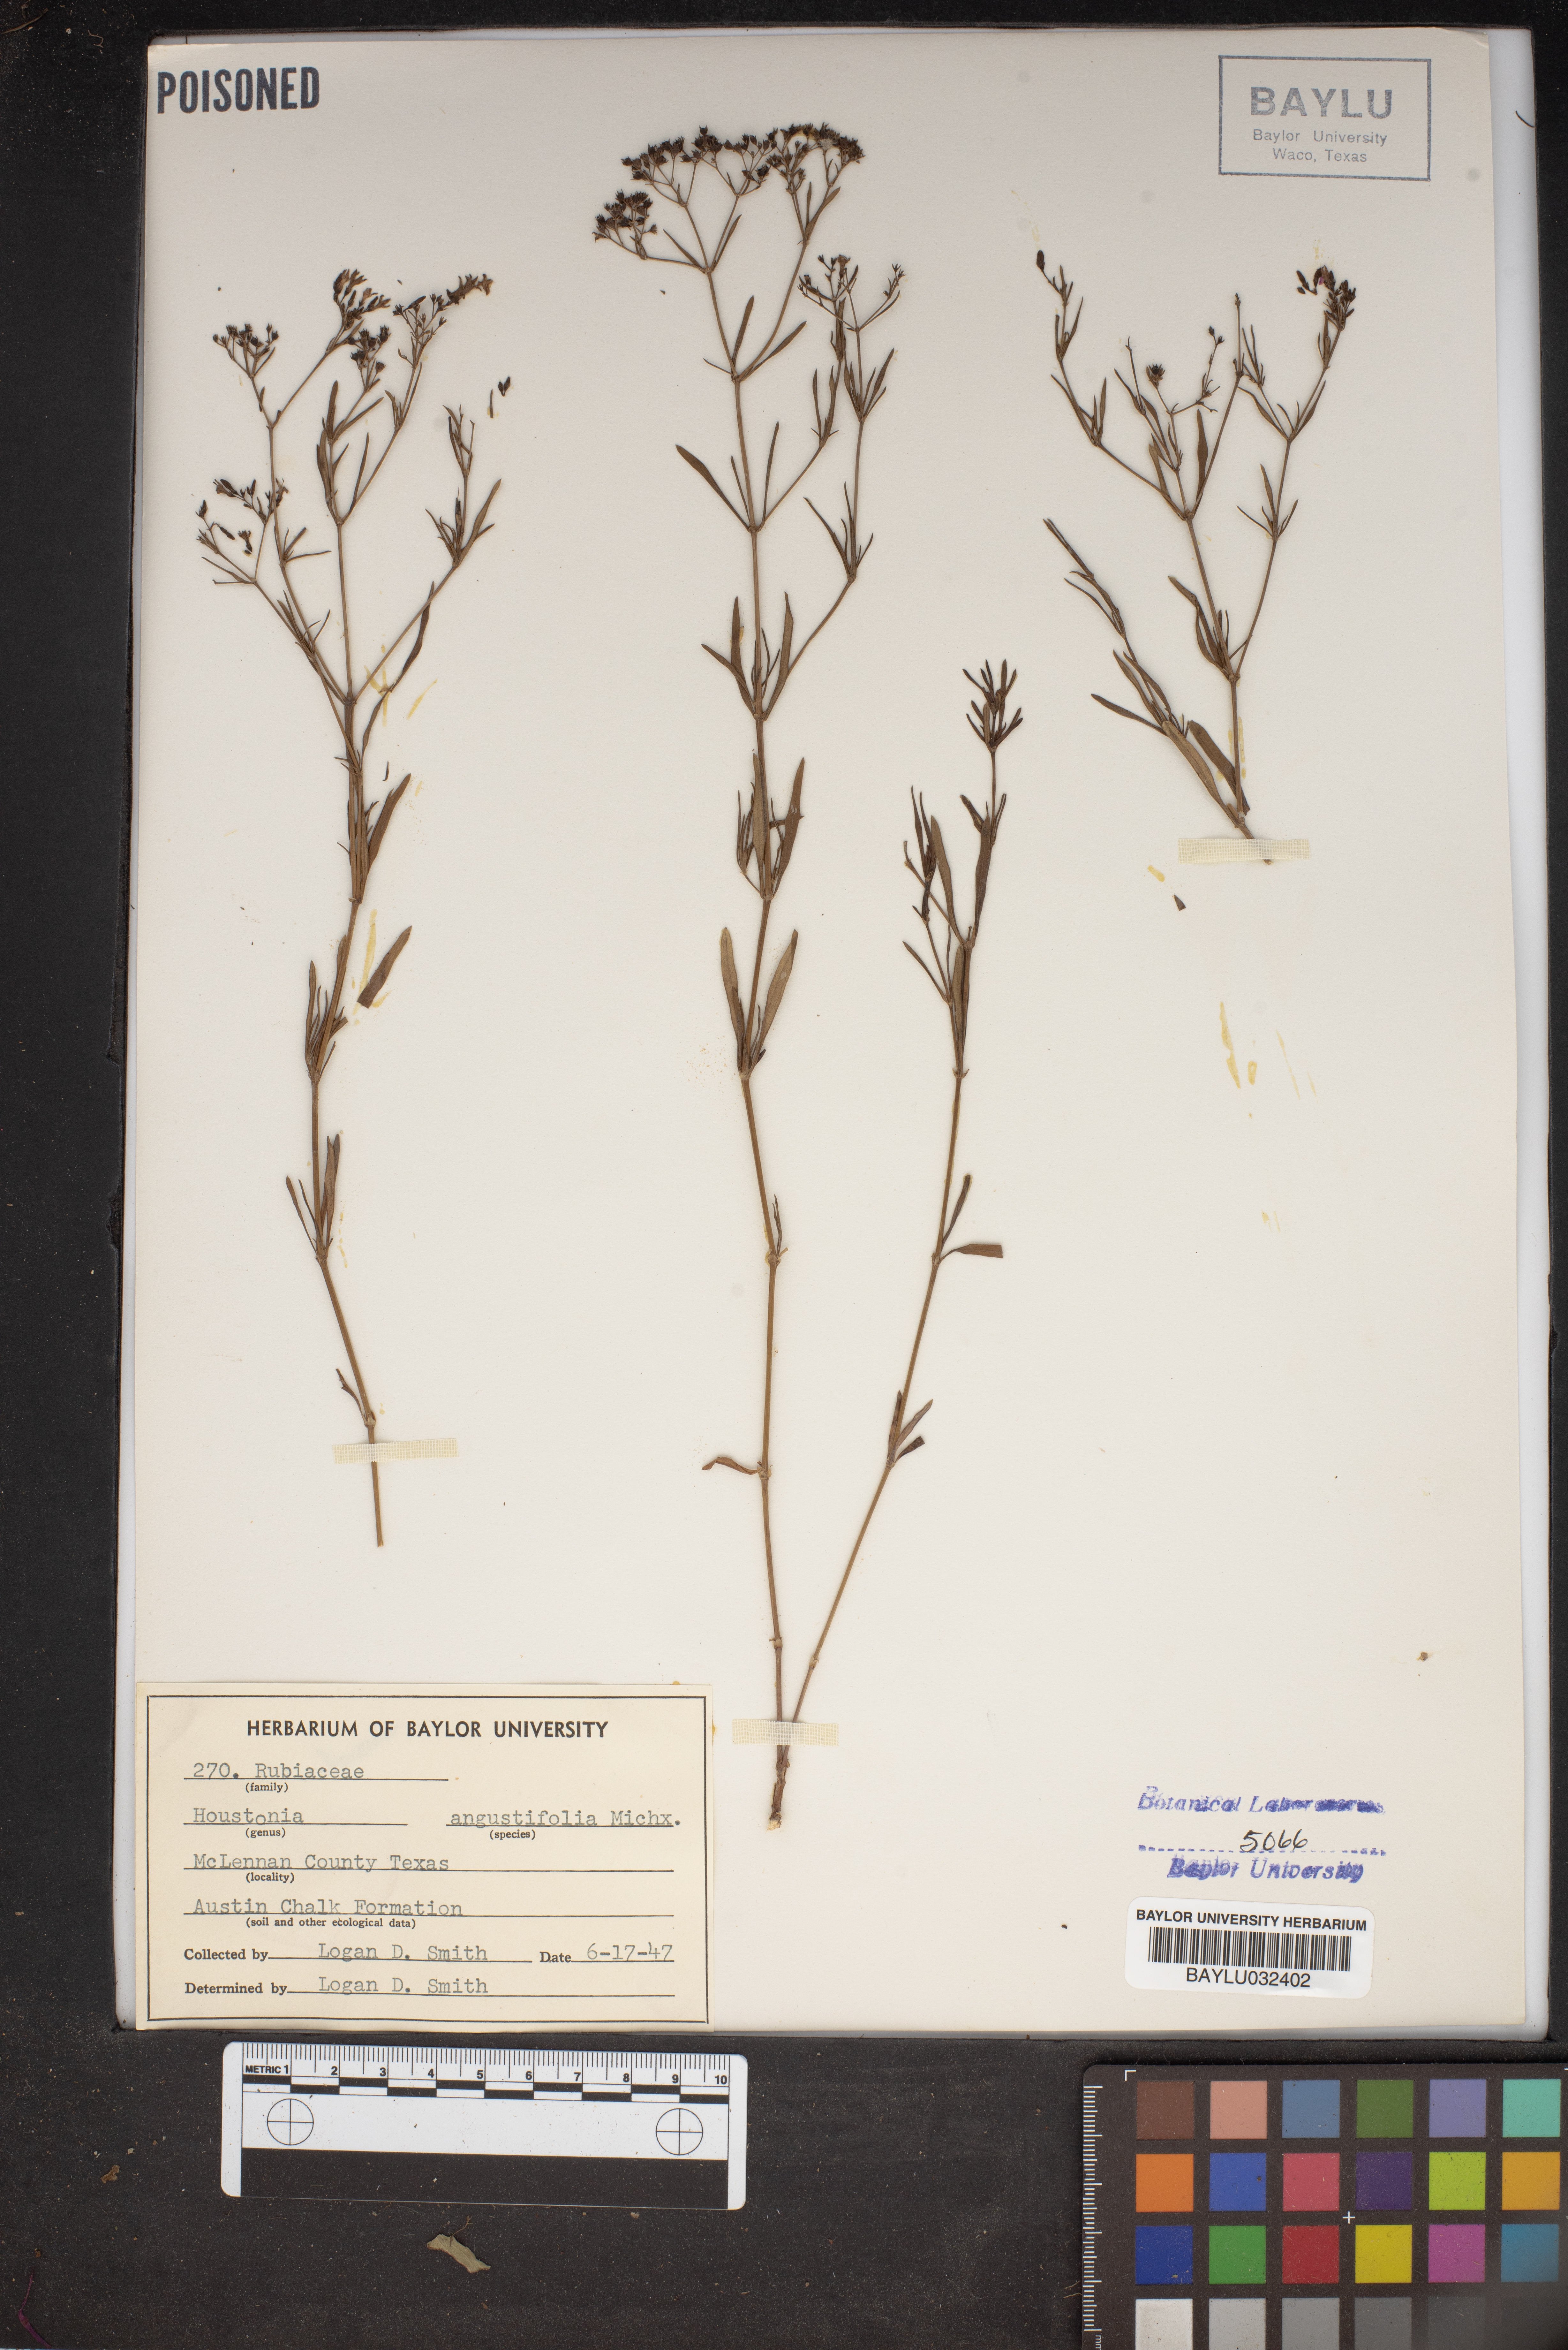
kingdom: Plantae
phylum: Tracheophyta
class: Magnoliopsida
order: Gentianales
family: Rubiaceae
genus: Stenaria
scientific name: Stenaria nigricans
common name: Diamondflowers
